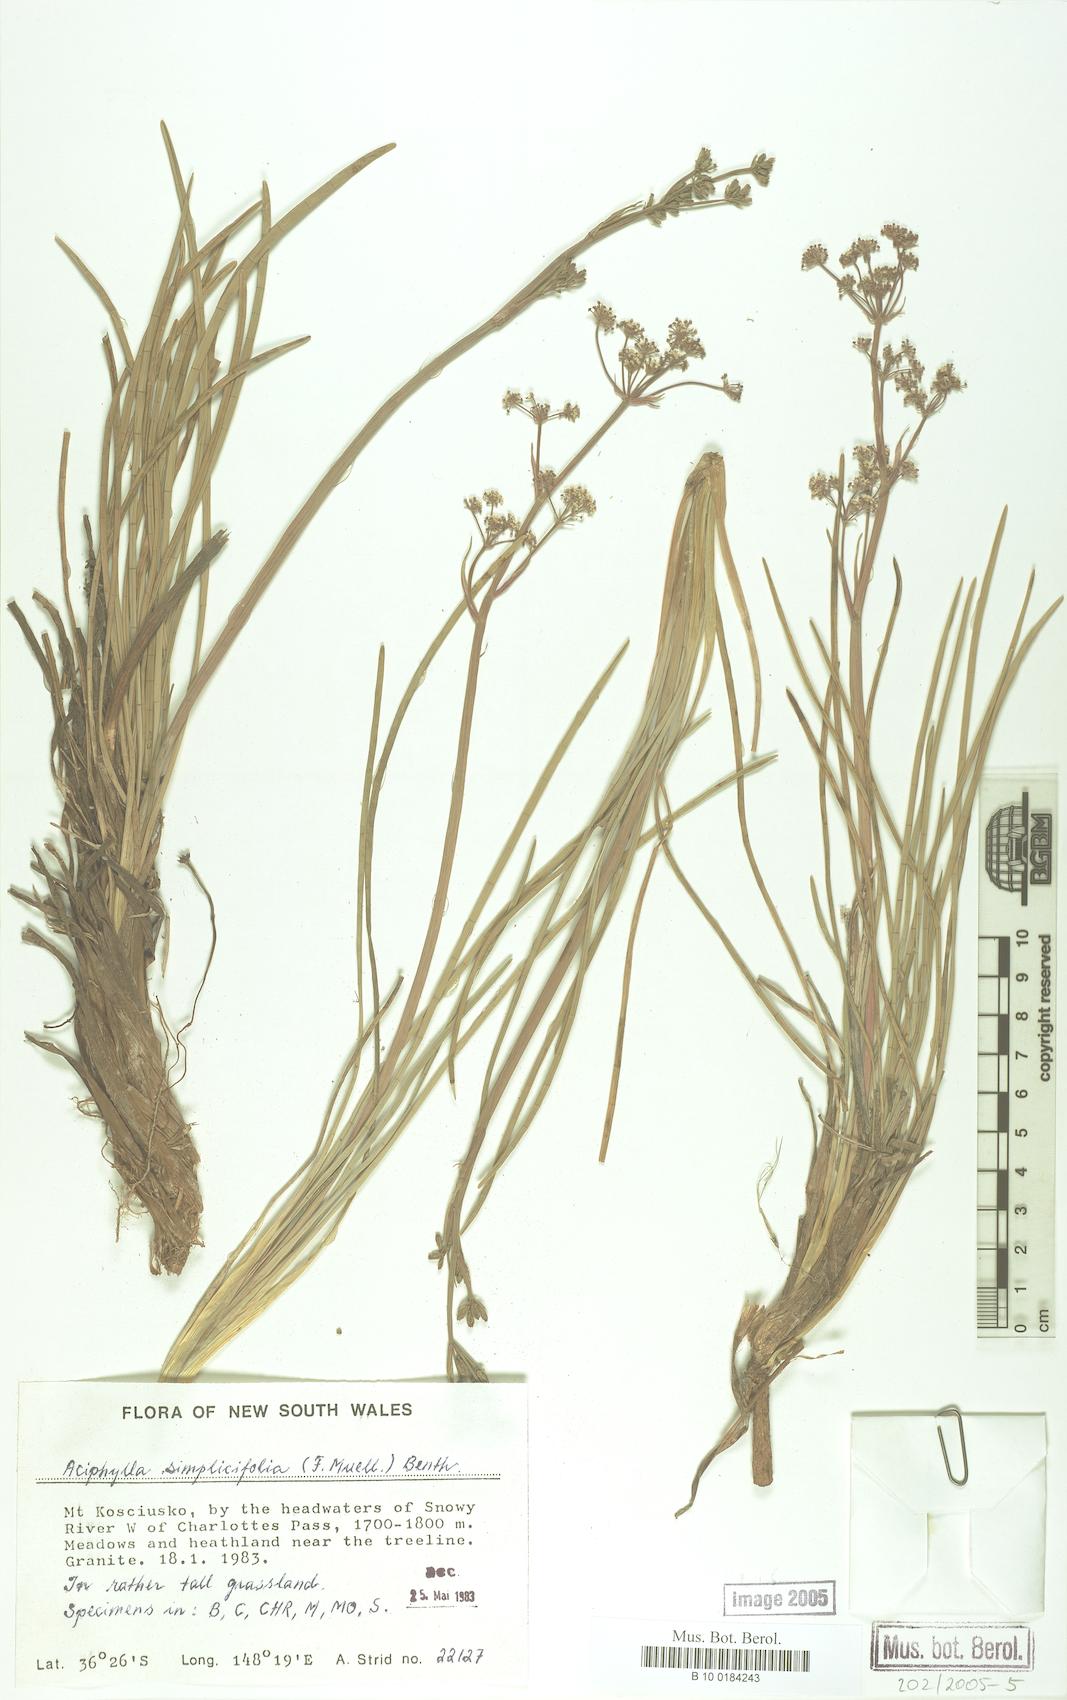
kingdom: Plantae
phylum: Tracheophyta
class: Magnoliopsida
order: Apiales
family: Apiaceae
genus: Aciphylla
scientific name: Aciphylla simplicifolia
